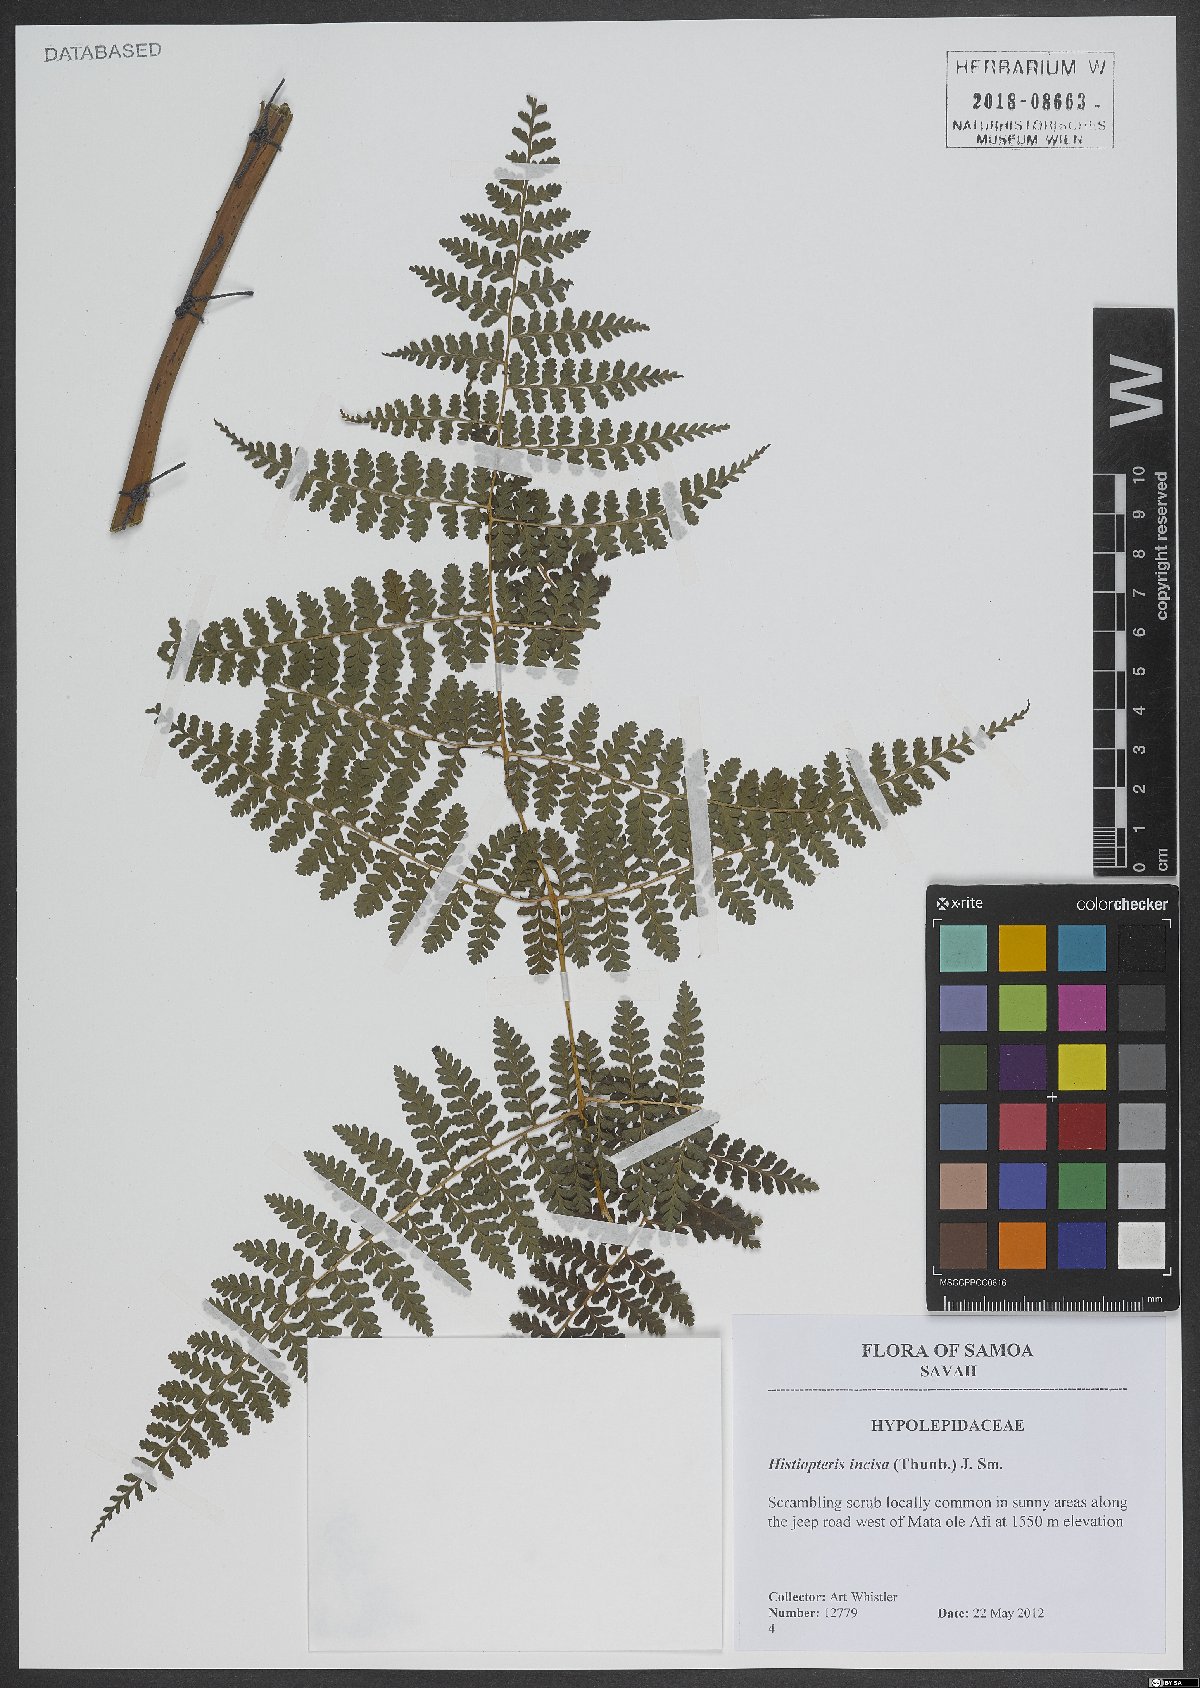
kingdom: Plantae
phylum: Tracheophyta
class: Polypodiopsida
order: Polypodiales
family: Dennstaedtiaceae
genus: Histiopteris
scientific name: Histiopteris incisa
